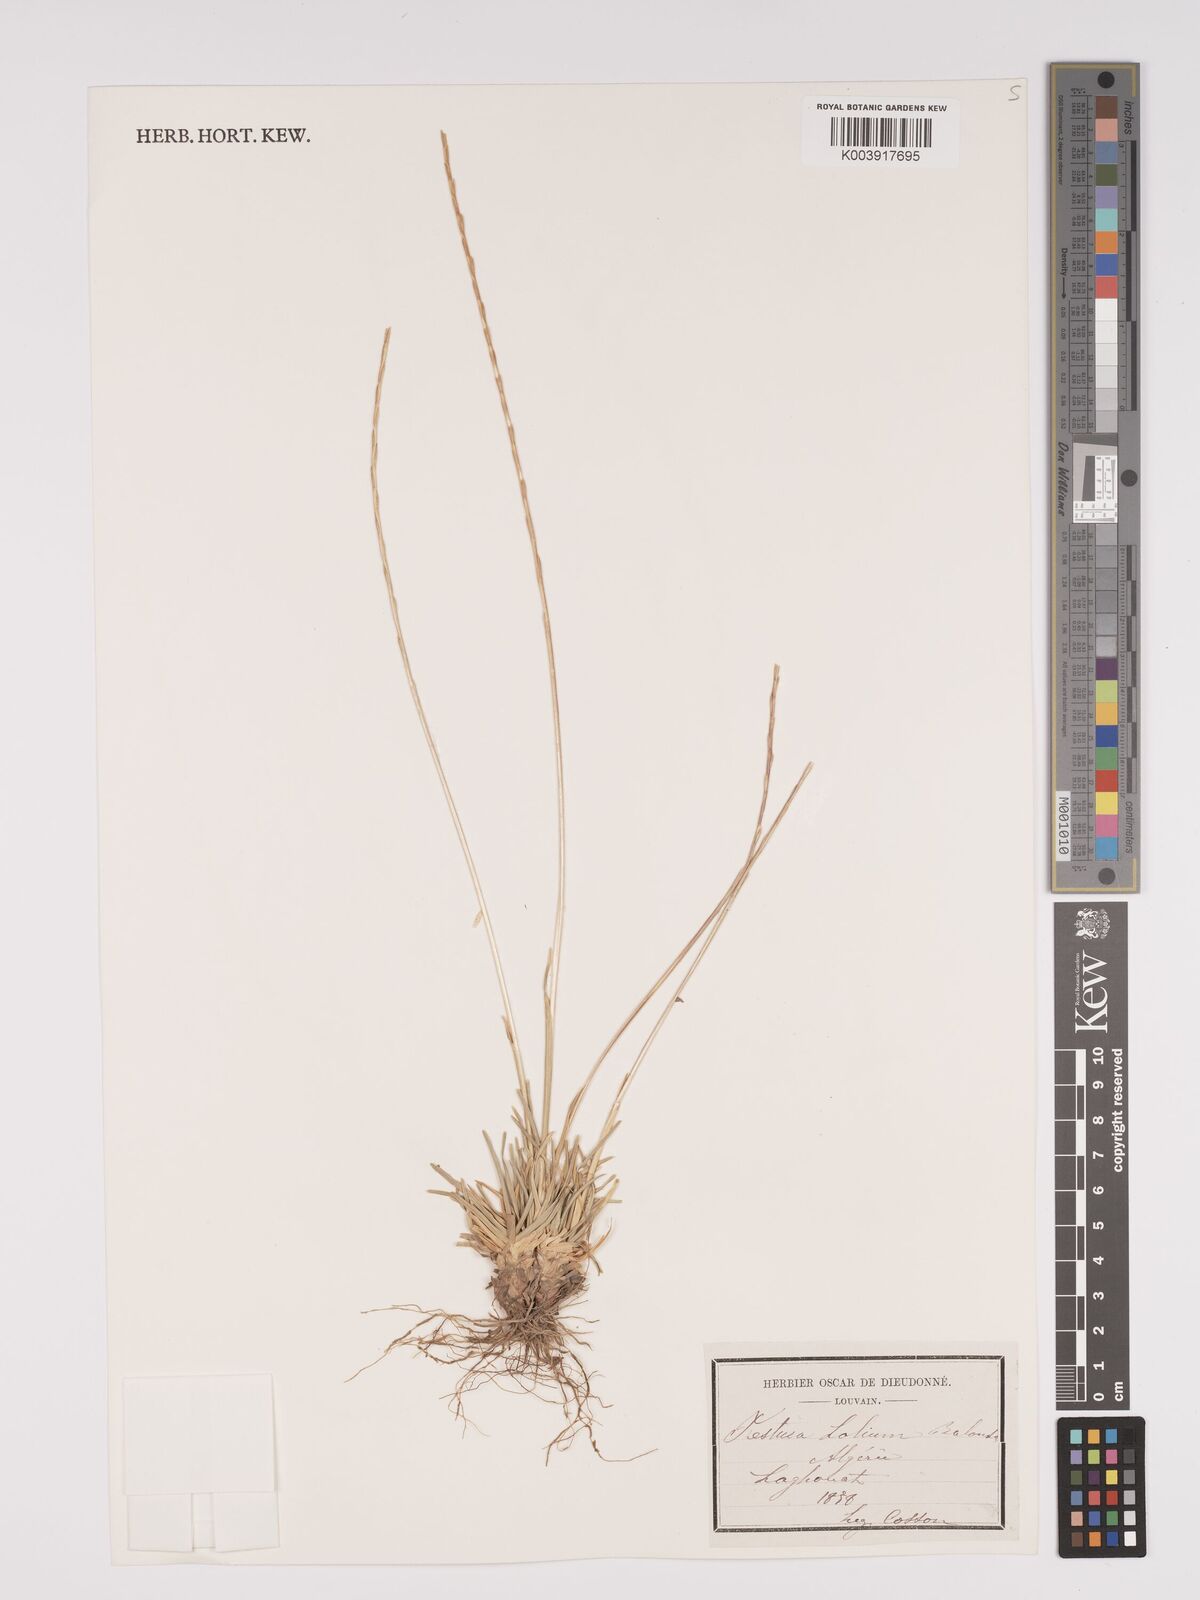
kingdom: Plantae
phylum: Tracheophyta
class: Liliopsida
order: Poales
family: Poaceae
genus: Lolium
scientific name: Lolium perenne
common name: Perennial ryegrass
